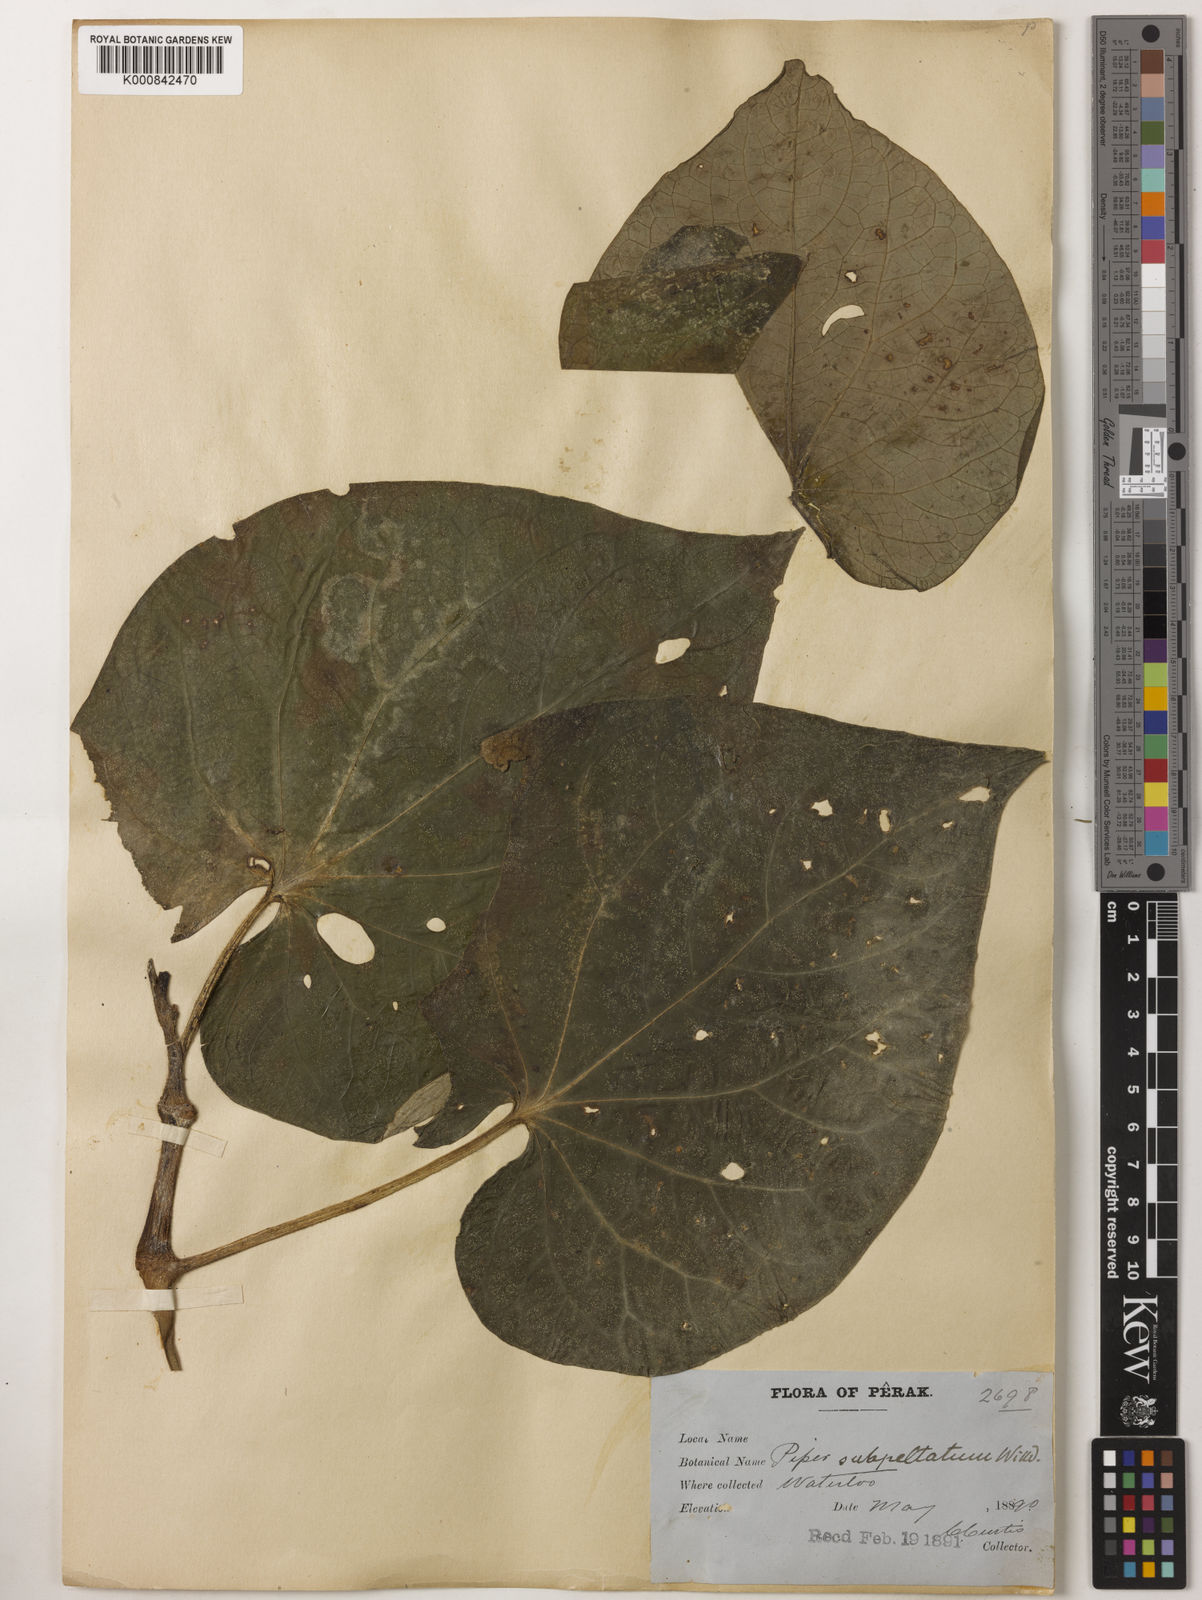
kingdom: Plantae
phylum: Tracheophyta
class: Magnoliopsida
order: Piperales
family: Piperaceae
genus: Piper
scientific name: Piper umbellatum
